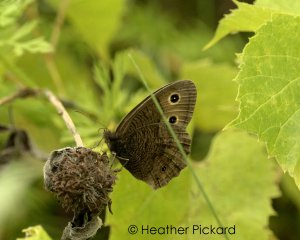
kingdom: Animalia
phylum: Arthropoda
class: Insecta
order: Lepidoptera
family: Nymphalidae
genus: Cercyonis
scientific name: Cercyonis pegala
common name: Common Wood-Nymph
